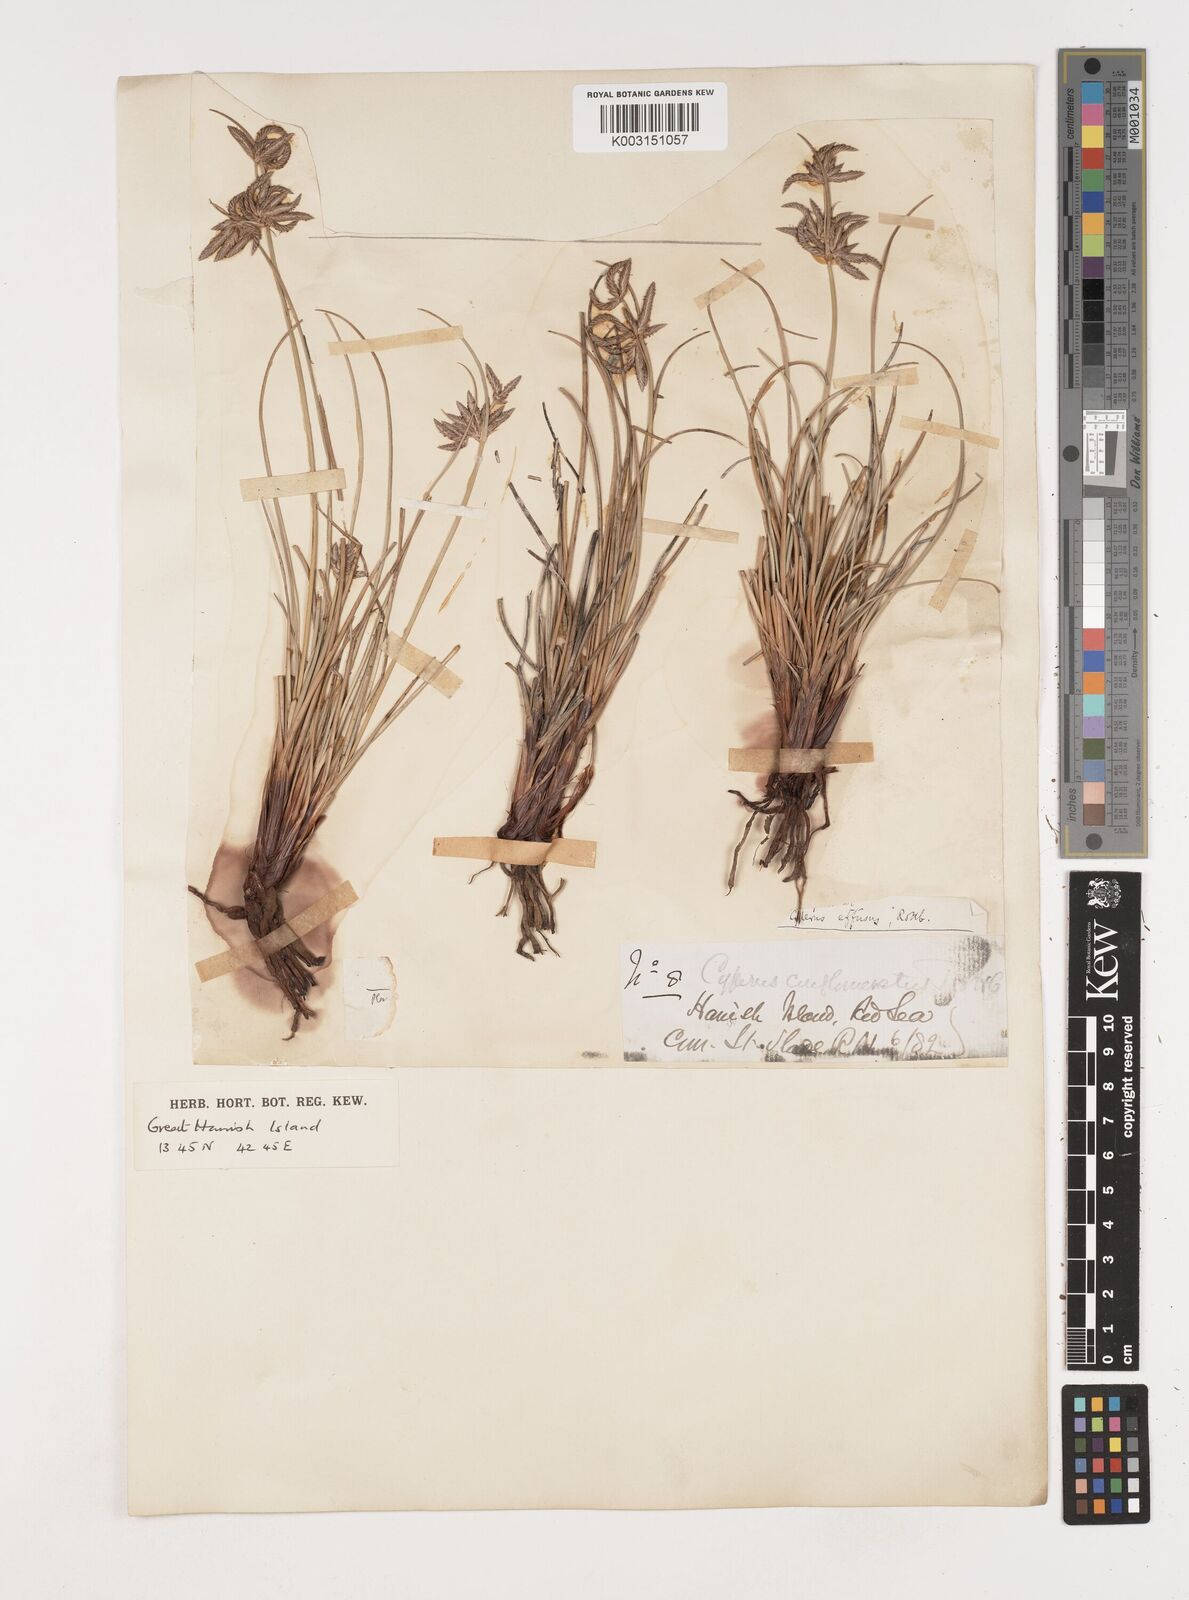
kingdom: Plantae
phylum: Tracheophyta
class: Liliopsida
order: Poales
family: Cyperaceae
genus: Cyperus
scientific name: Cyperus conglomeratus
